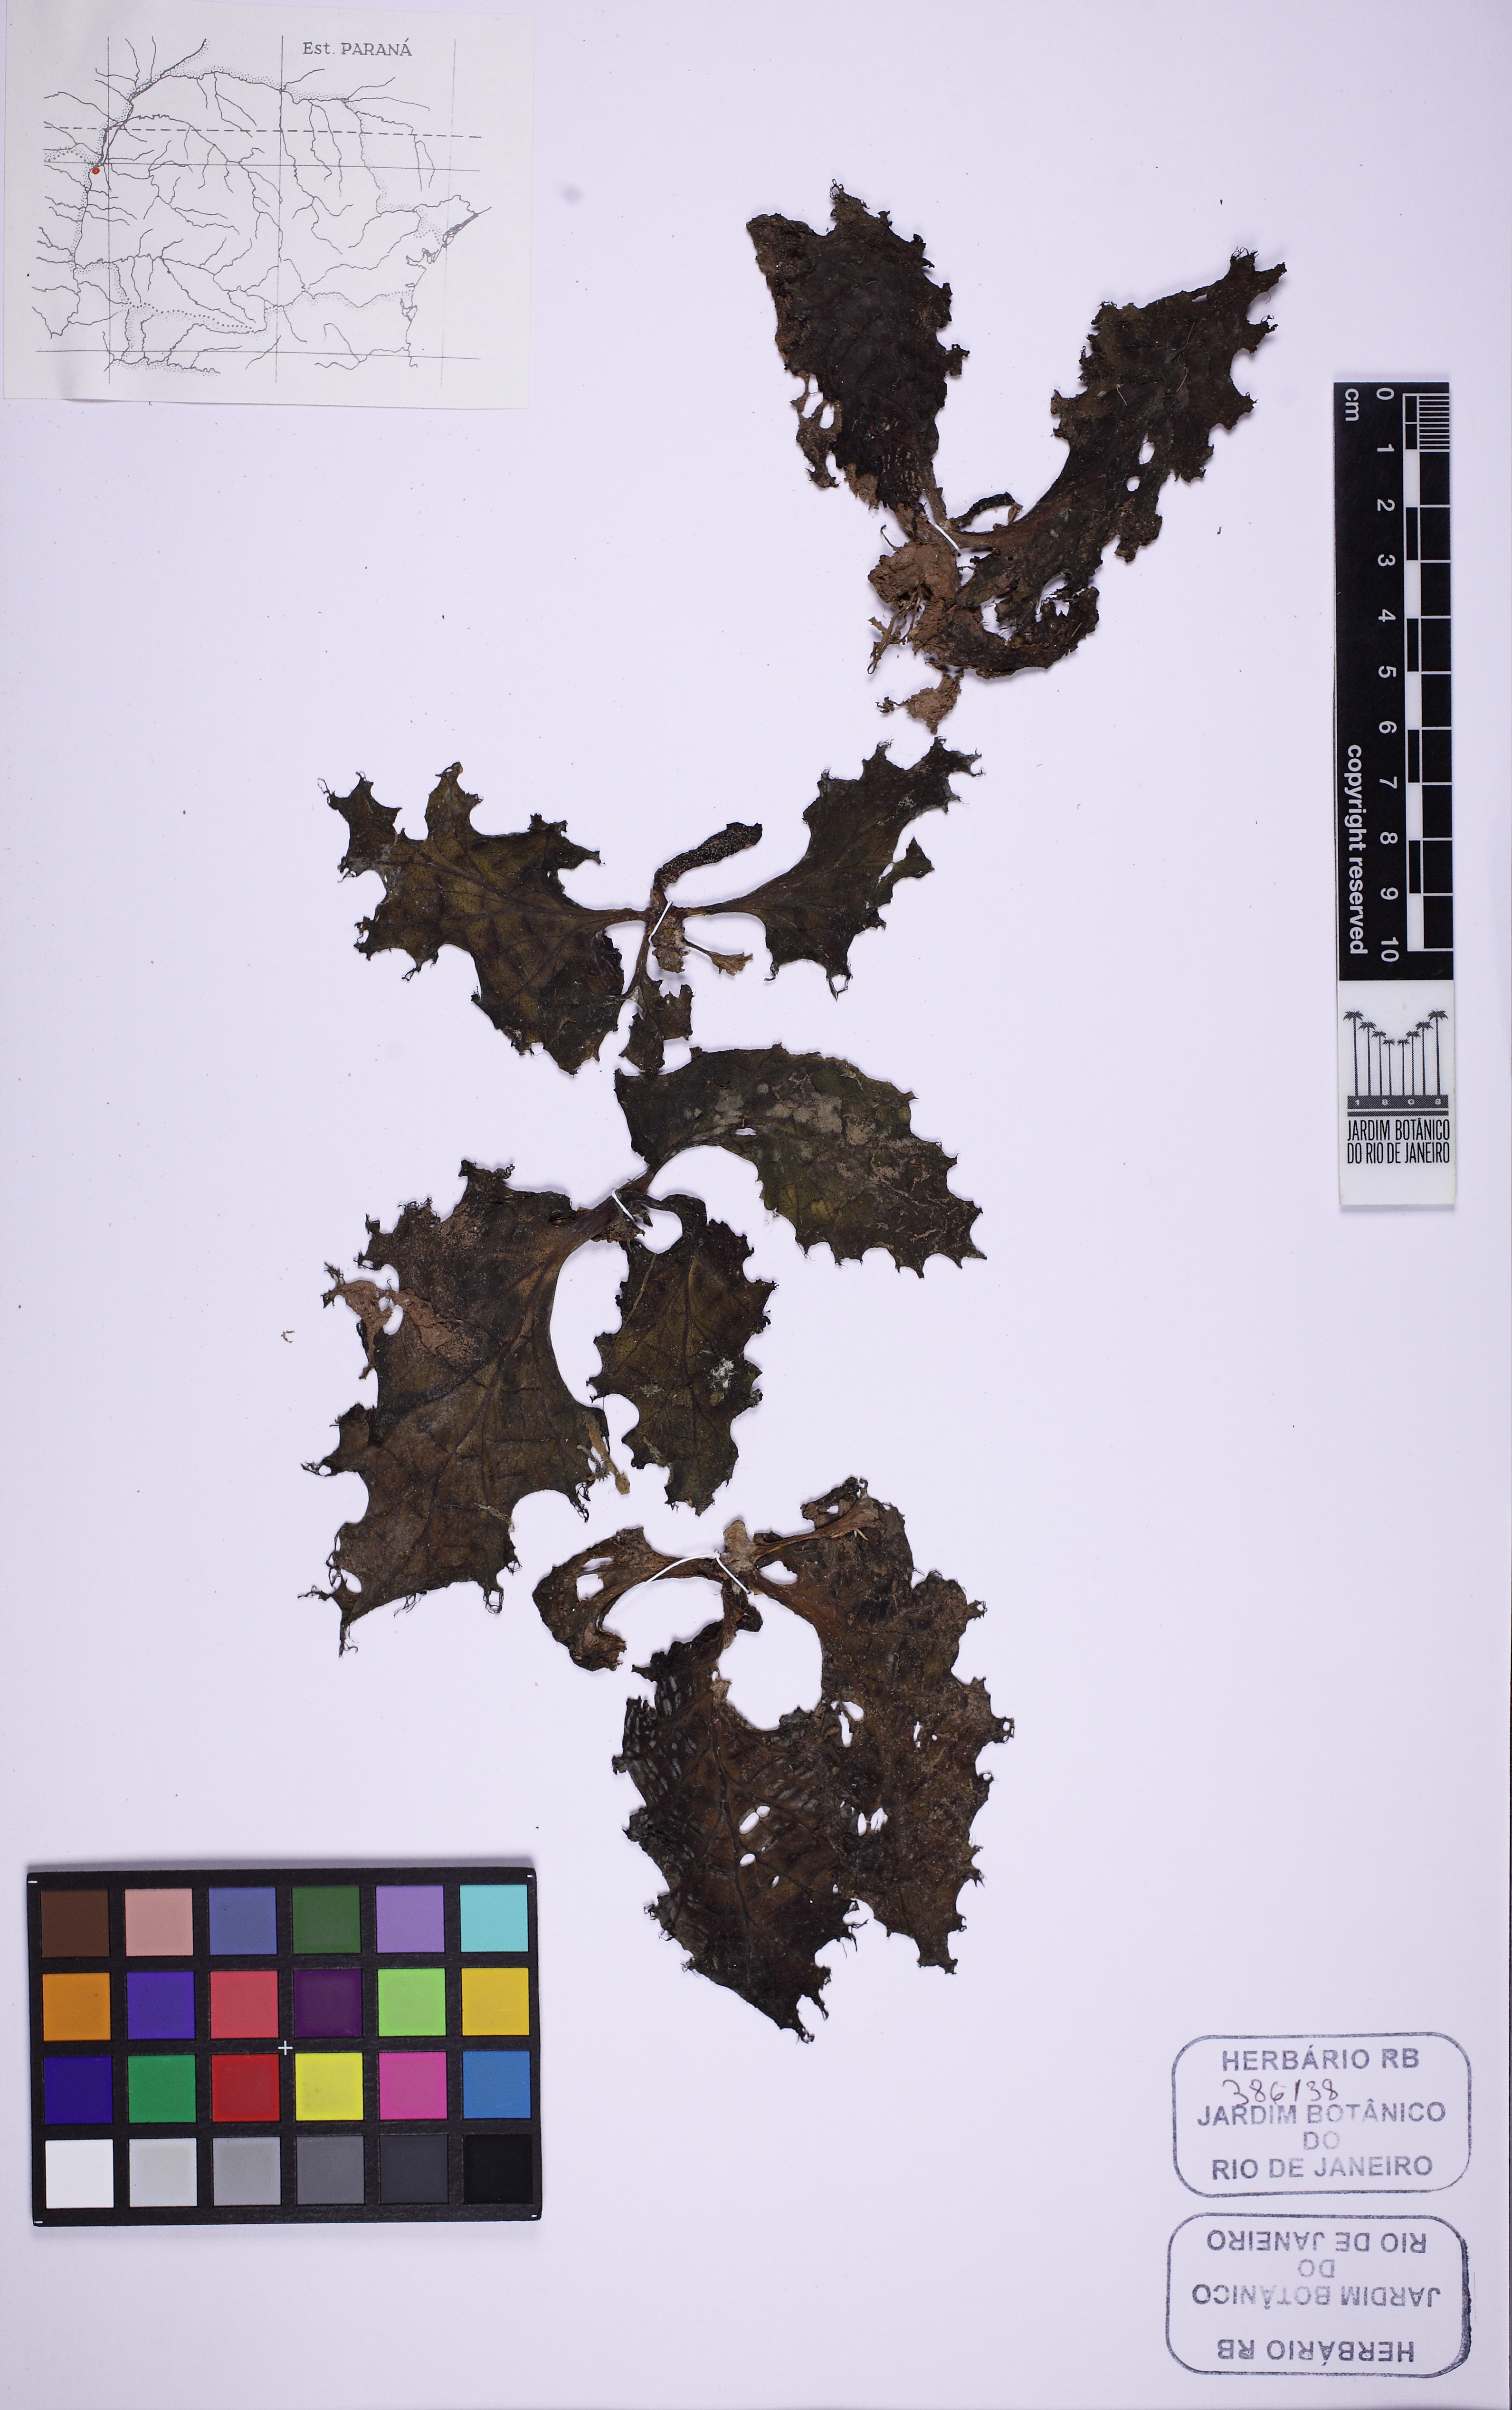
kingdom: Plantae
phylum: Tracheophyta
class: Magnoliopsida
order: Malpighiales
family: Podostemaceae
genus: Mourera
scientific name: Mourera aspera
